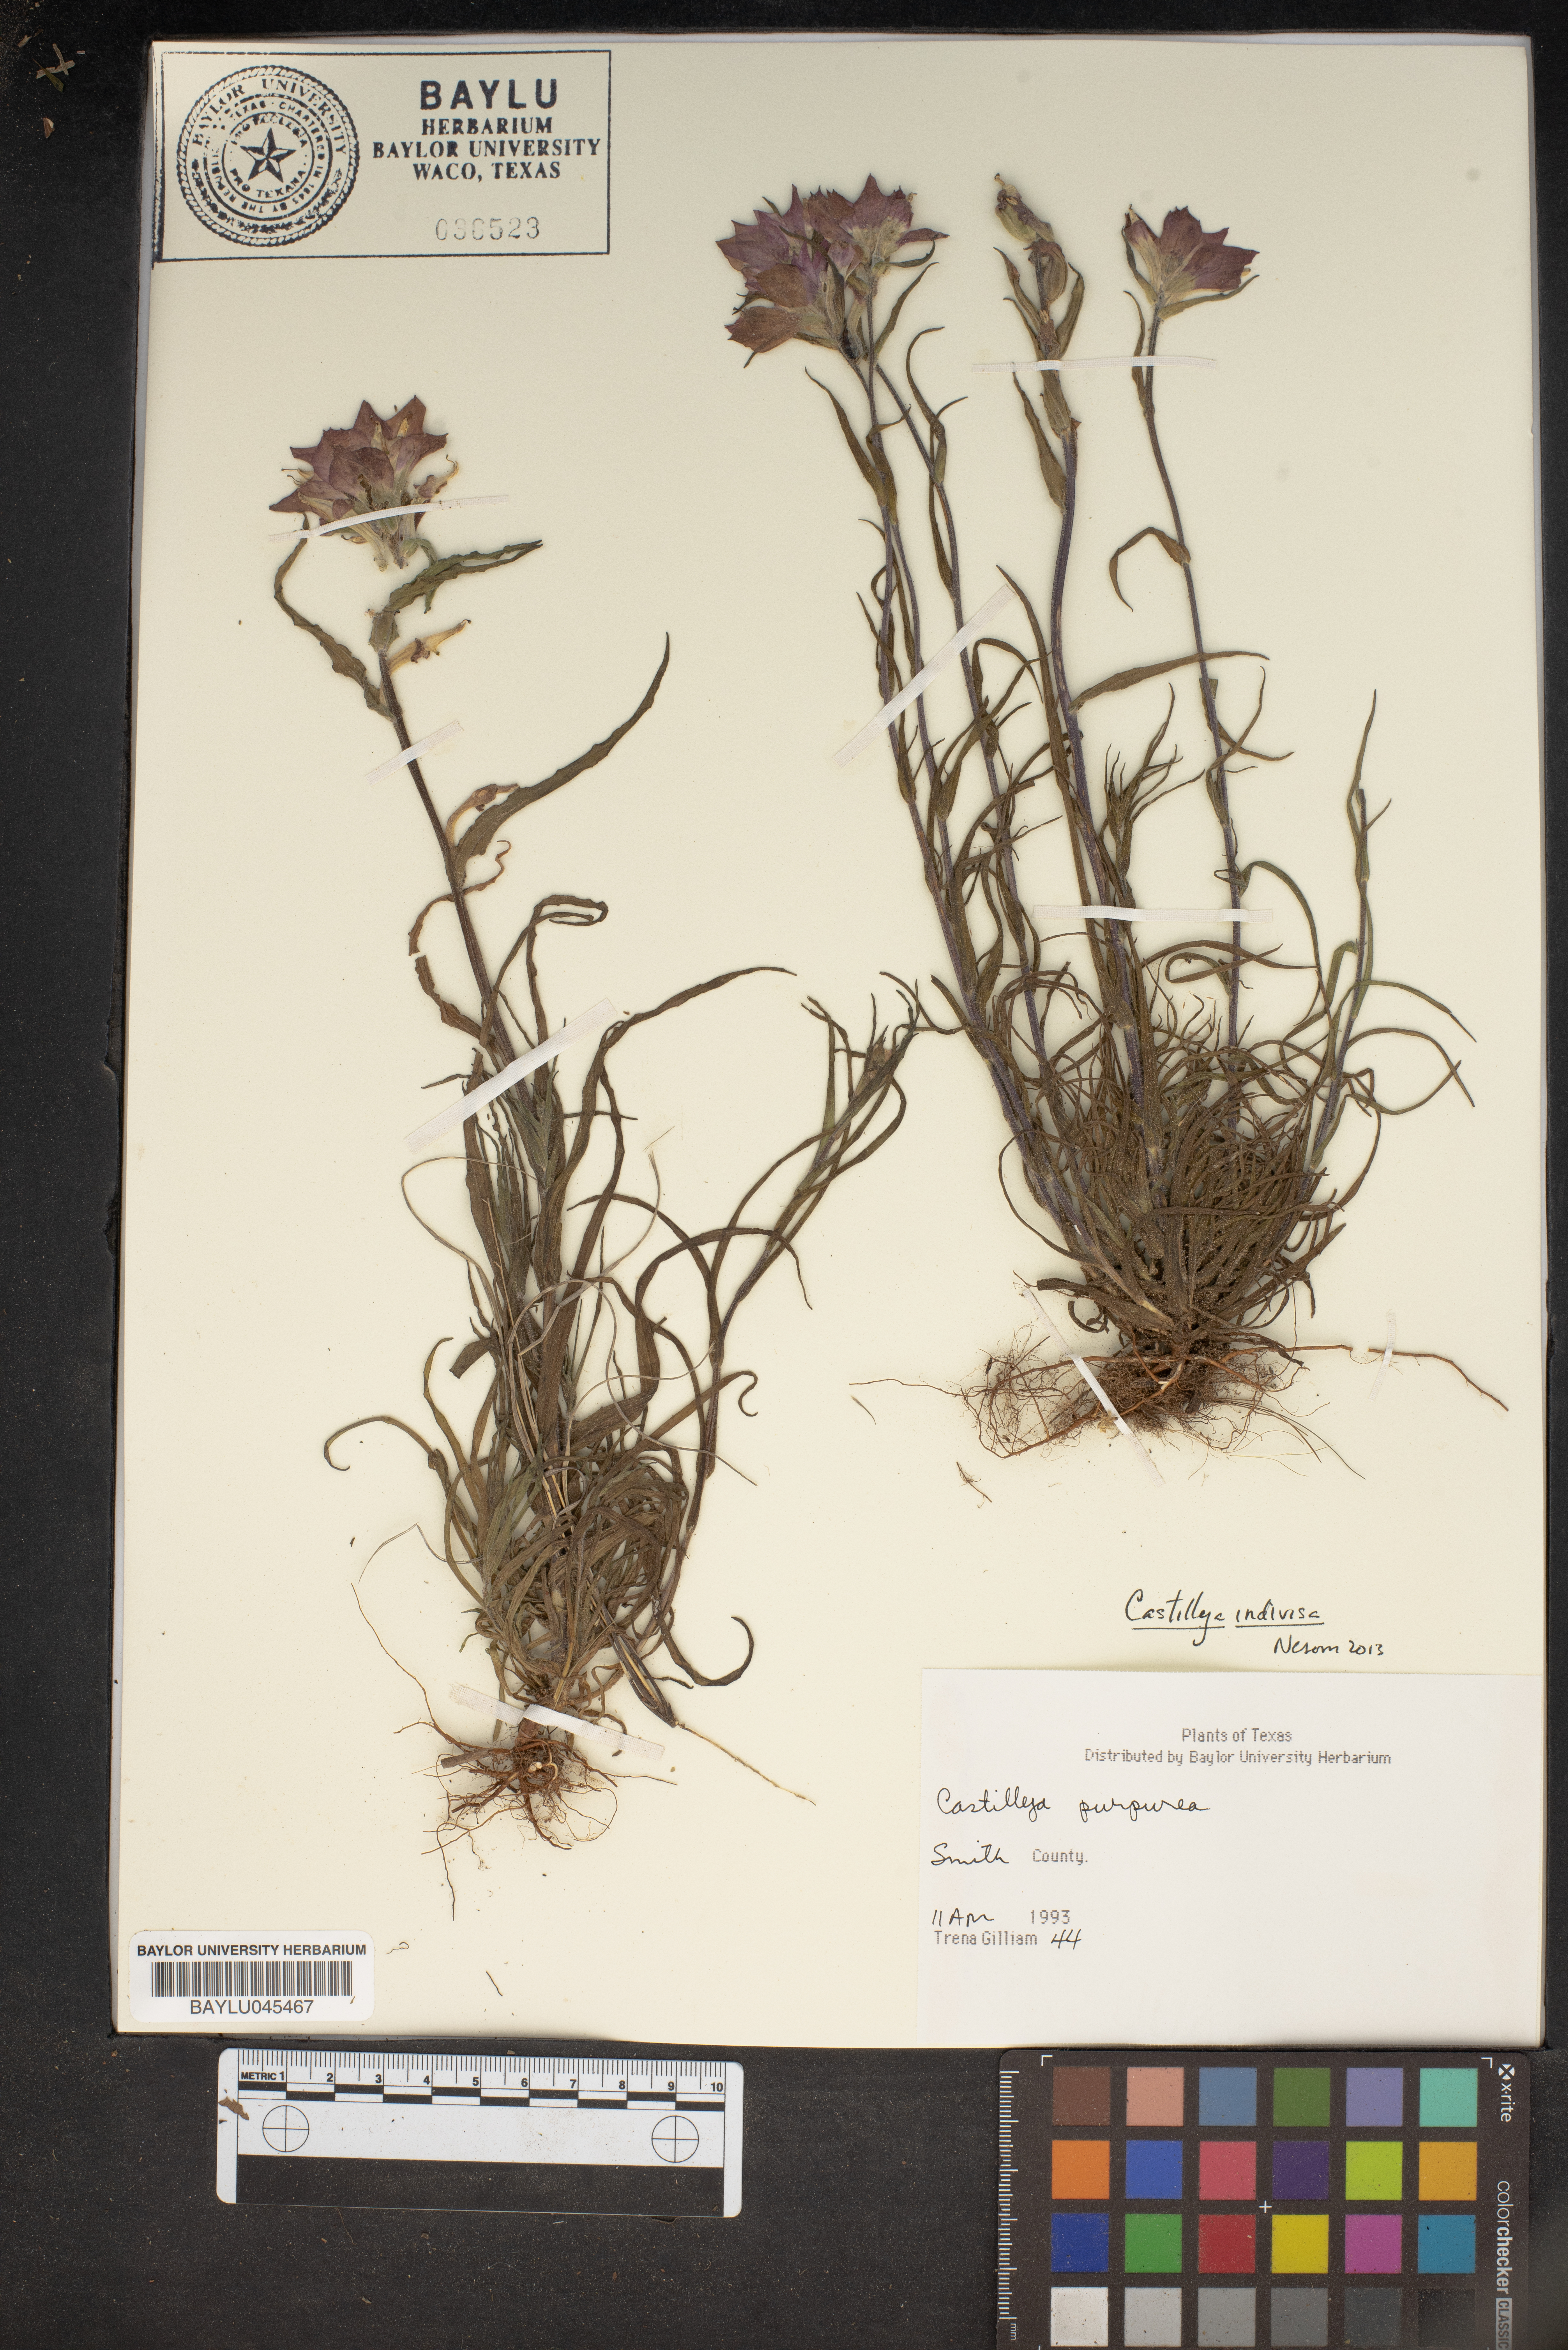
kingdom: Plantae
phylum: Tracheophyta
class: Magnoliopsida
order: Lamiales
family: Orobanchaceae
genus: Castilleja
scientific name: Castilleja purpurea
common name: Plains paintbrush
